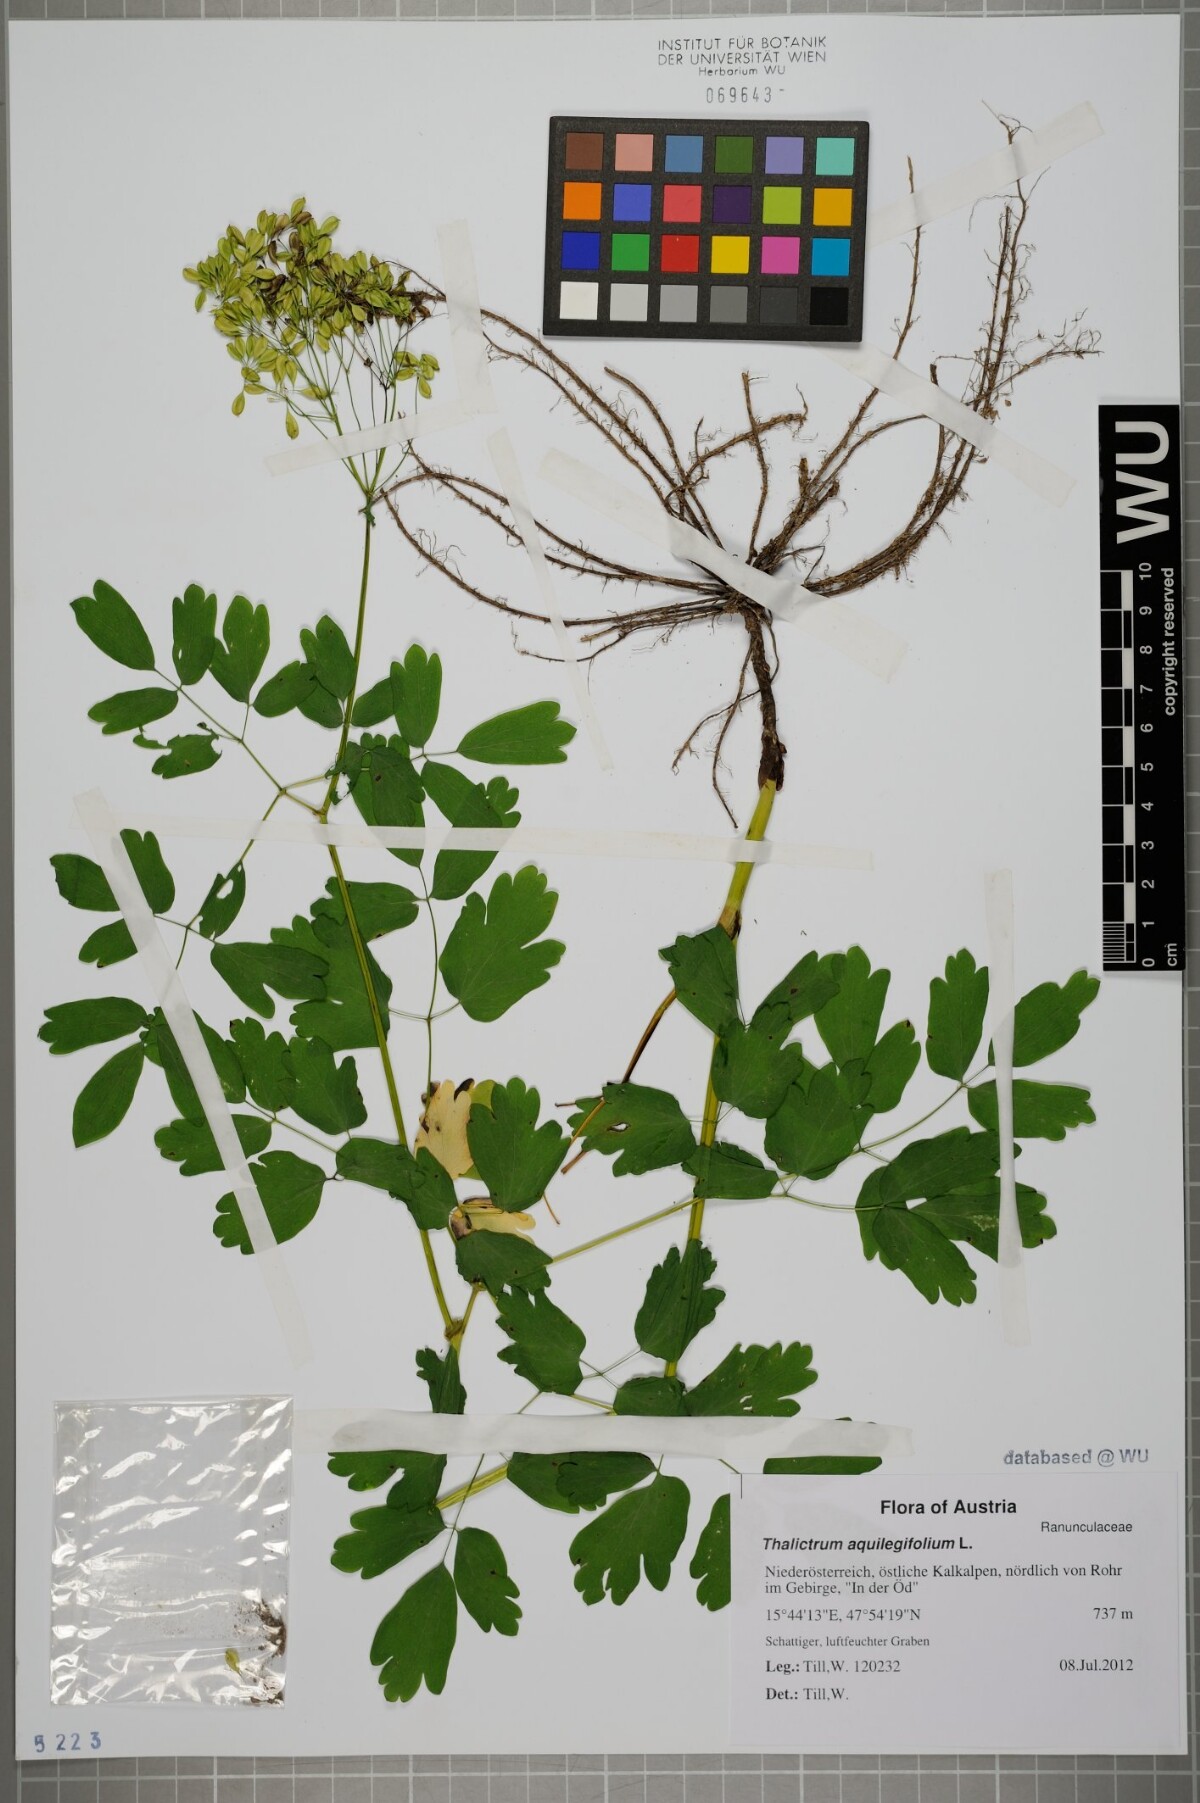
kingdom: Plantae
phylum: Tracheophyta
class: Magnoliopsida
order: Ranunculales
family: Ranunculaceae
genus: Thalictrum
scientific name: Thalictrum aquilegiifolium
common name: French meadow-rue
